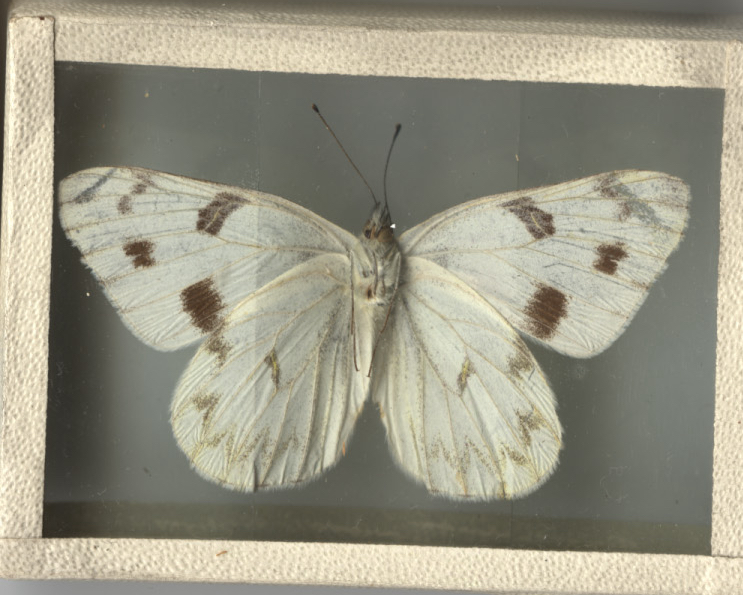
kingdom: Animalia
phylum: Arthropoda
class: Insecta
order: Lepidoptera
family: Pieridae
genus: Pontia
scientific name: Pontia protodice
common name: Checkered White
